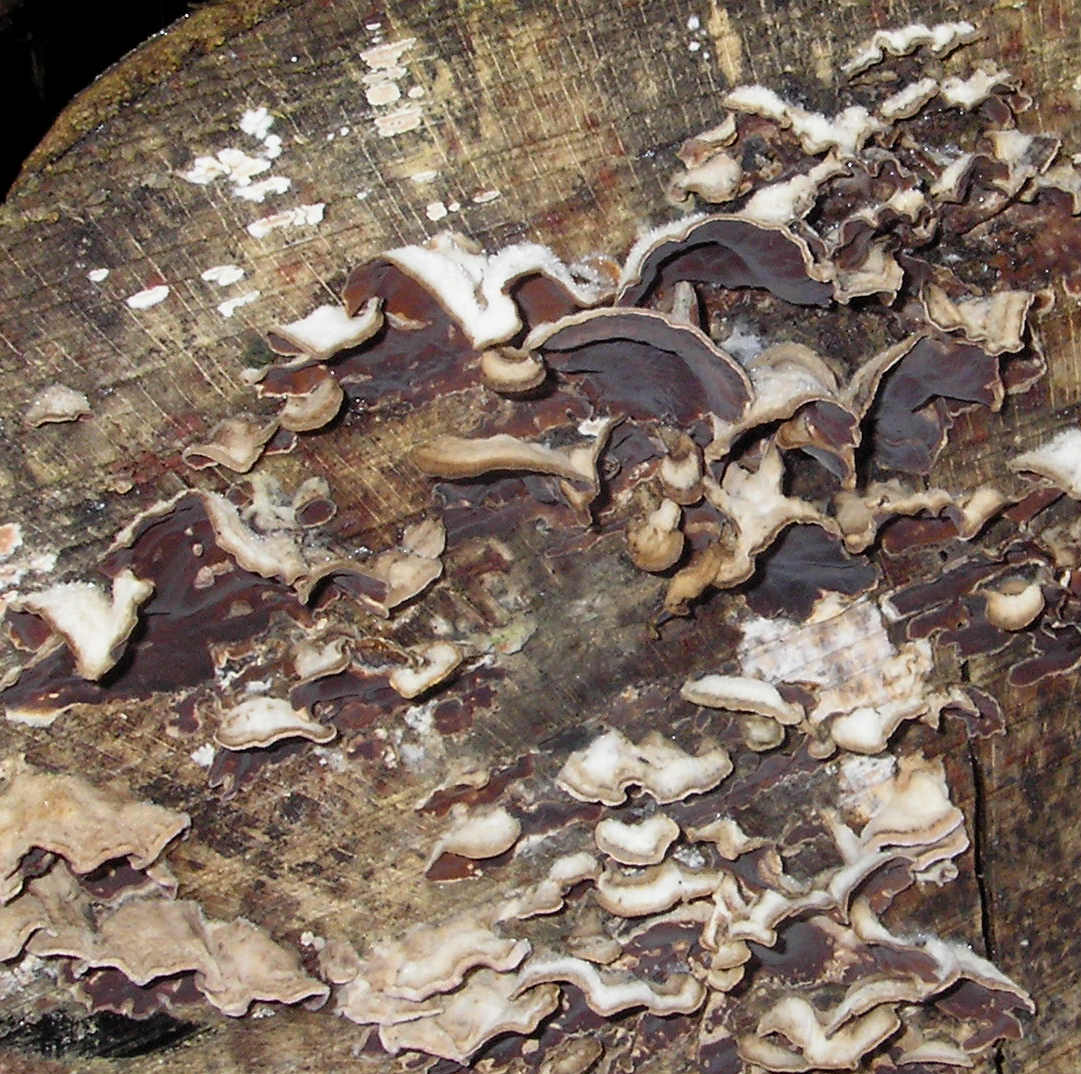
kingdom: Fungi
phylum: Basidiomycota
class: Agaricomycetes
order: Agaricales
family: Cyphellaceae
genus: Chondrostereum
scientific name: Chondrostereum purpureum
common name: purpurlædersvamp
